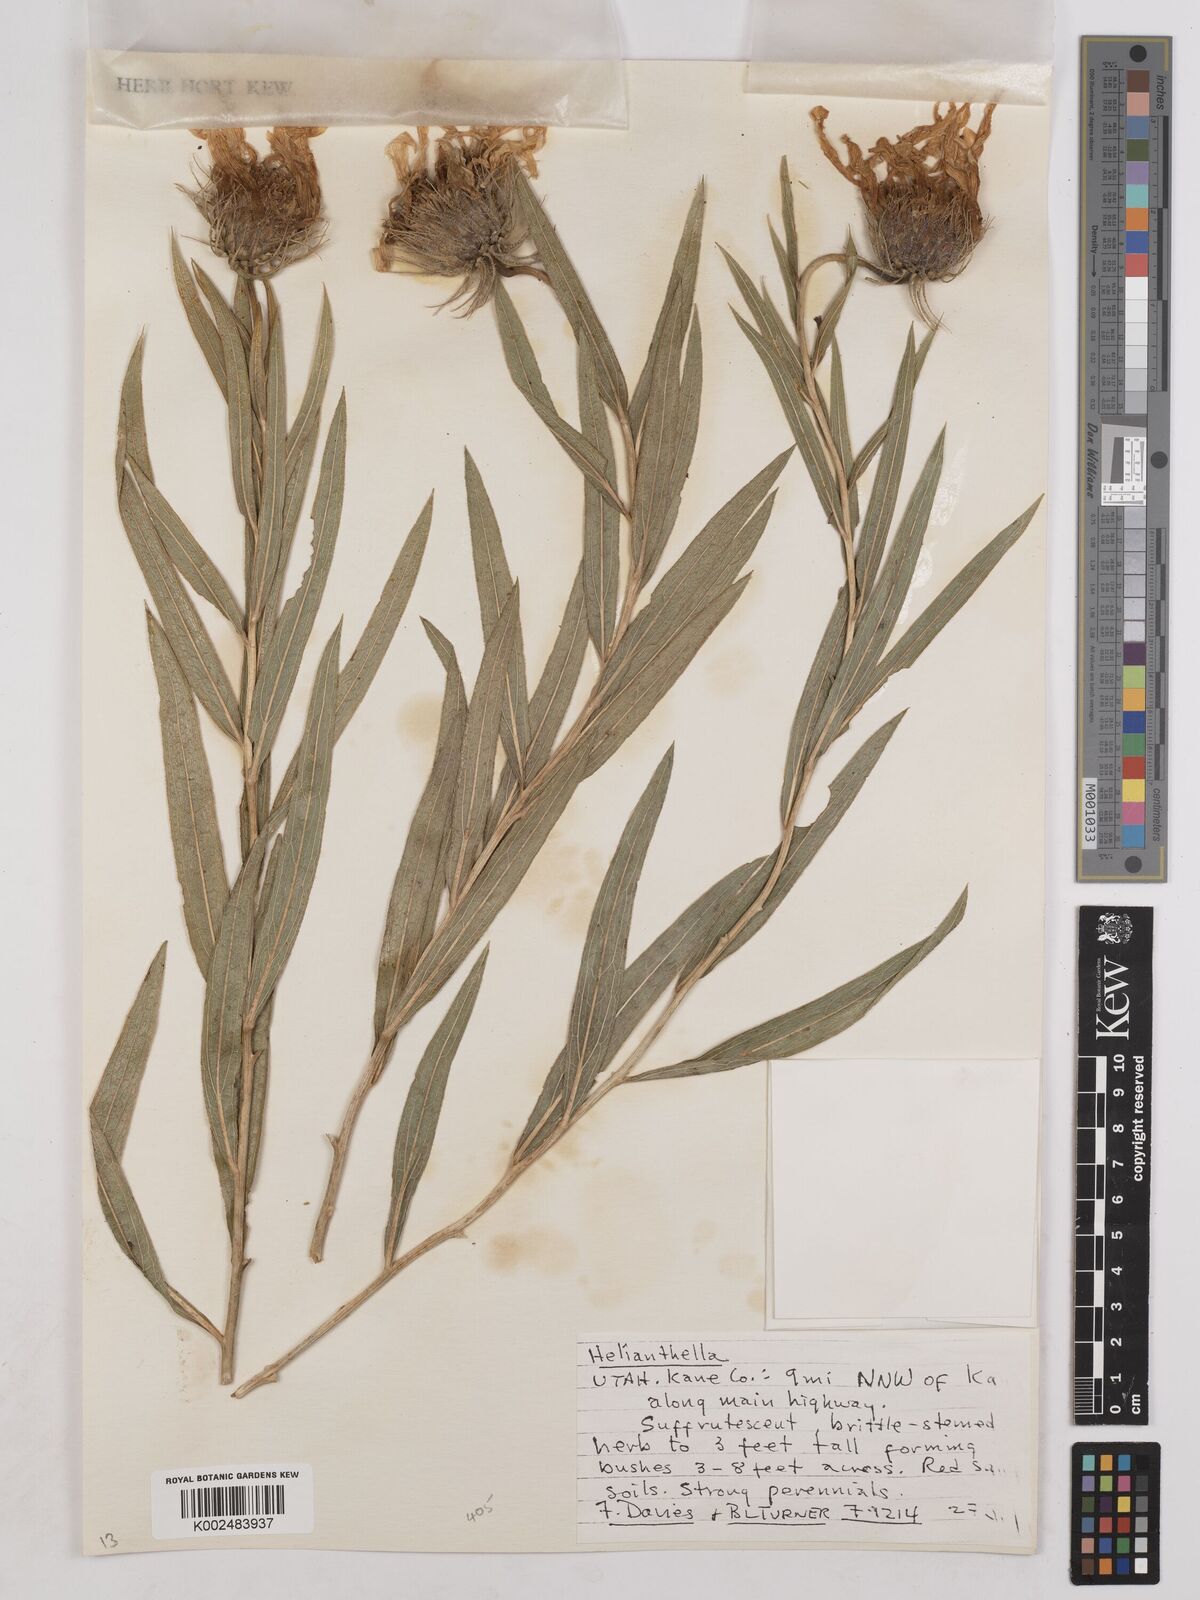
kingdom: Plantae
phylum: Tracheophyta
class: Magnoliopsida
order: Asterales
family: Asteraceae
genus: Helianthella
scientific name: Helianthella
